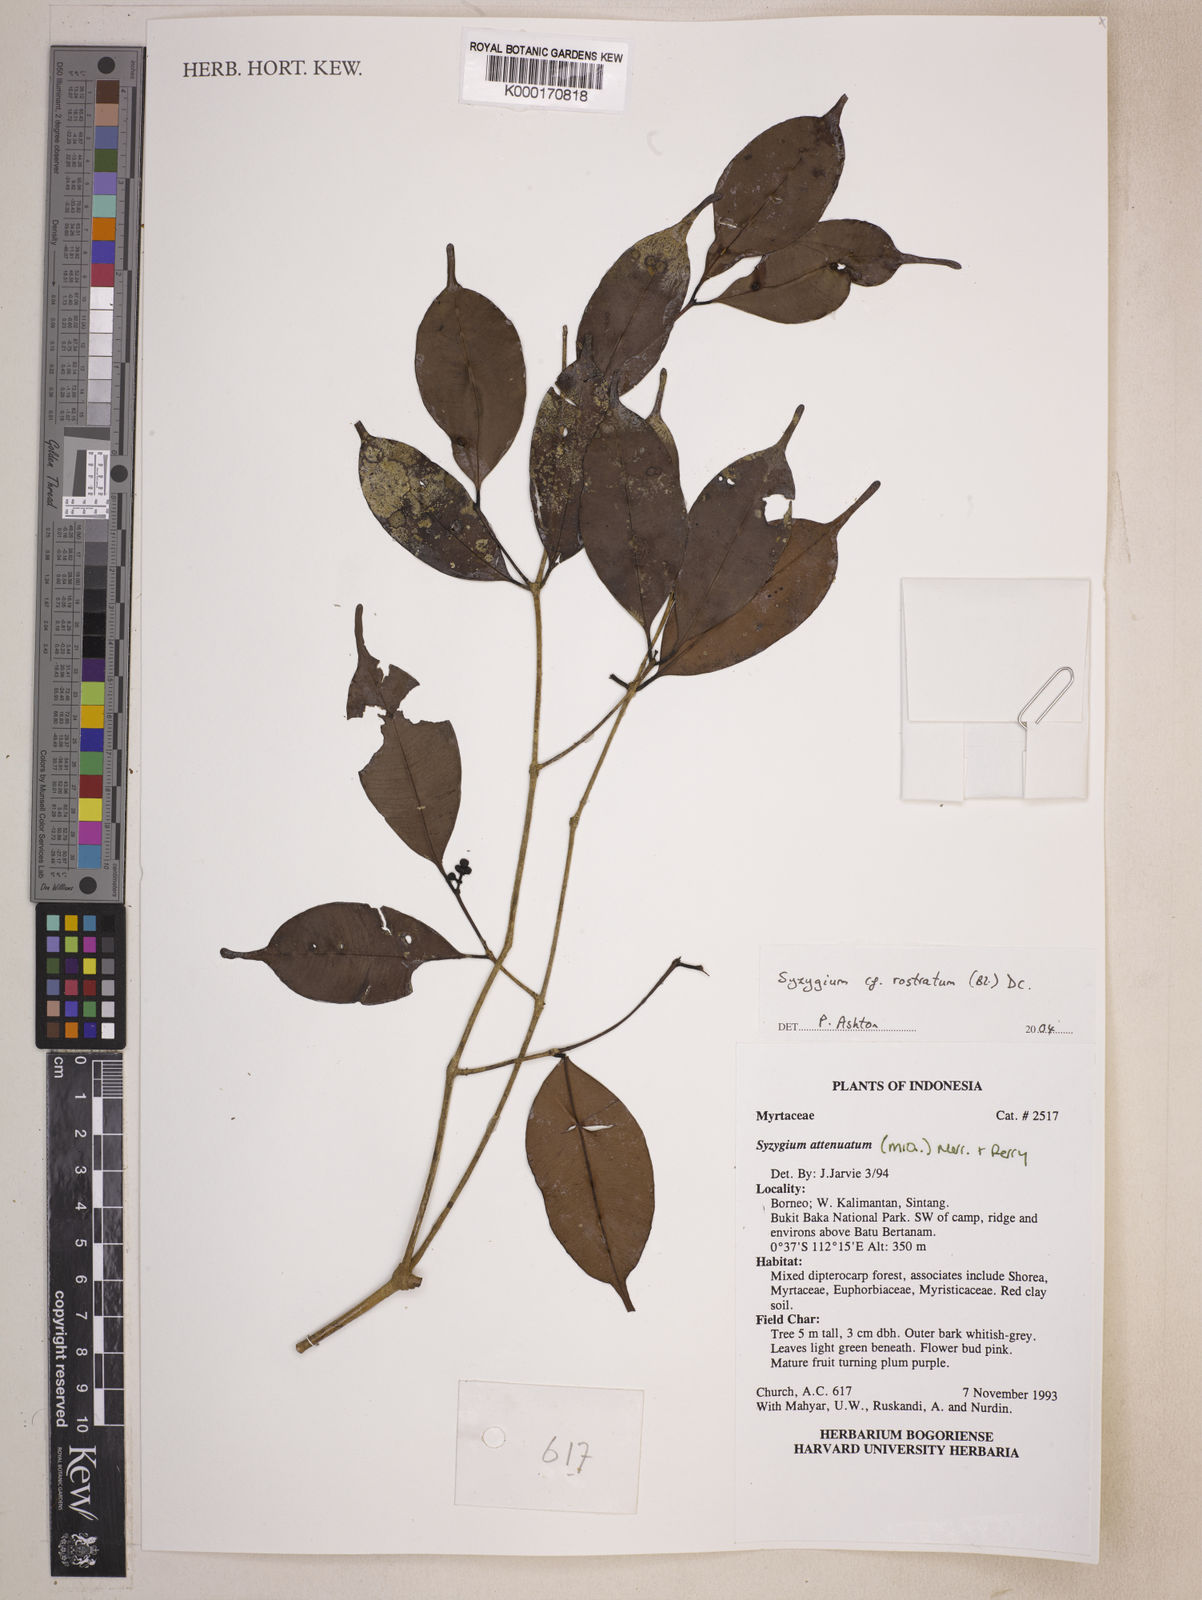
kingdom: Plantae
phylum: Tracheophyta
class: Magnoliopsida
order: Myrtales
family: Myrtaceae
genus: Syzygium
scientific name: Syzygium rostratum
